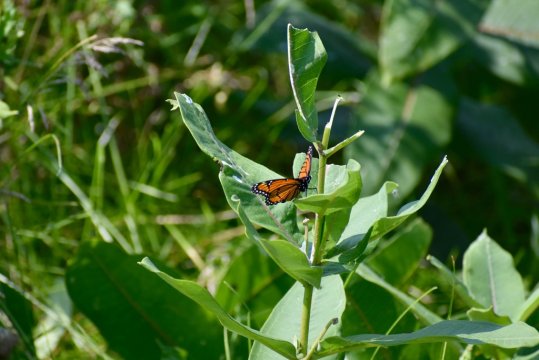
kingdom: Animalia
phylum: Arthropoda
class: Insecta
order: Lepidoptera
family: Nymphalidae
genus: Limenitis
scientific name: Limenitis archippus
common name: Viceroy
